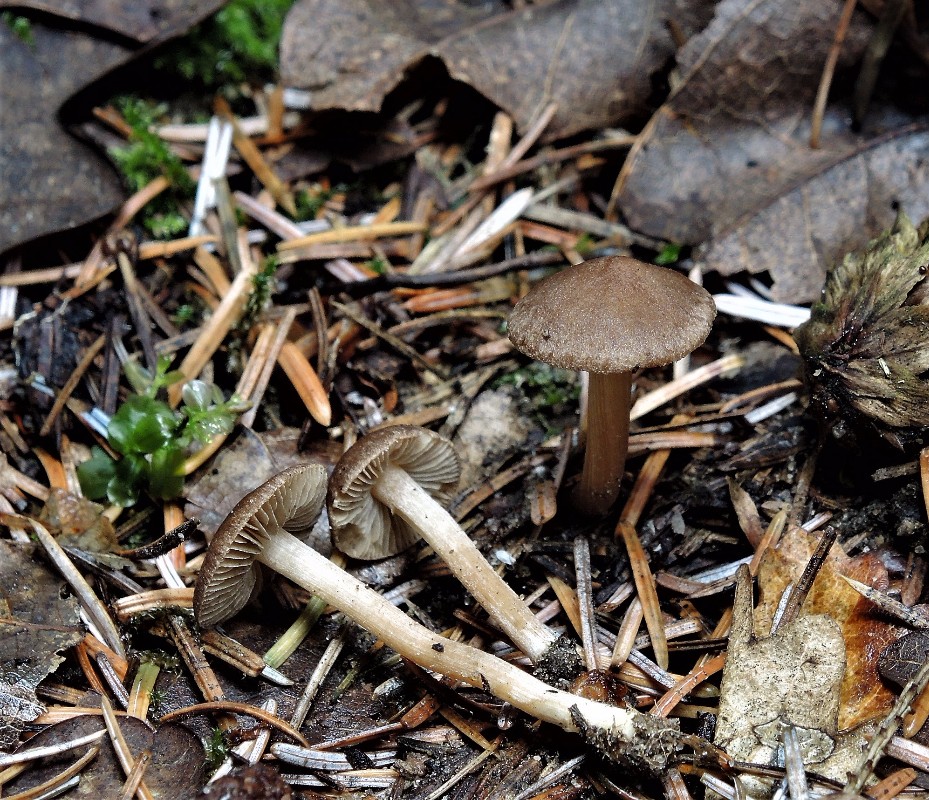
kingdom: Fungi
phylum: Basidiomycota
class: Agaricomycetes
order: Agaricales
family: Inocybaceae
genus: Inocybe
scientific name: Inocybe tjallingiorum
